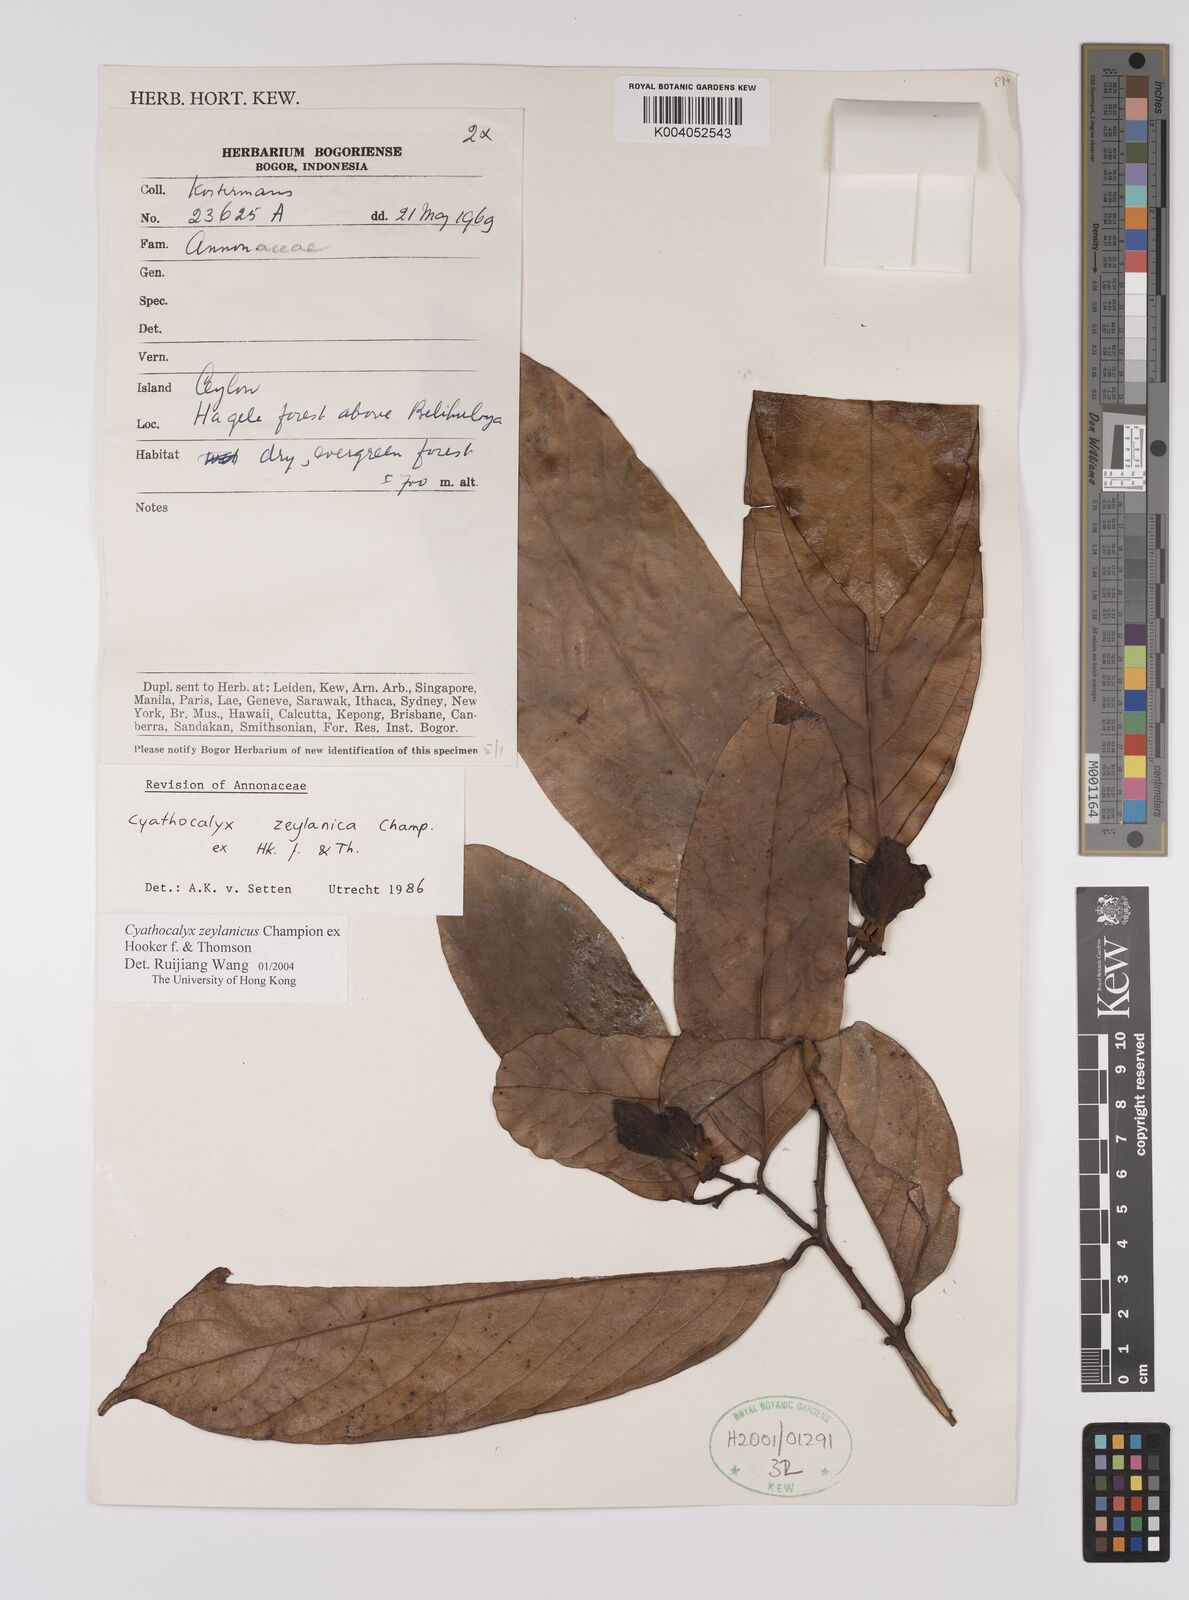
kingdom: Plantae
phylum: Tracheophyta
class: Magnoliopsida
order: Magnoliales
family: Annonaceae
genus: Cyathocalyx
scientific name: Cyathocalyx zeylanicus
